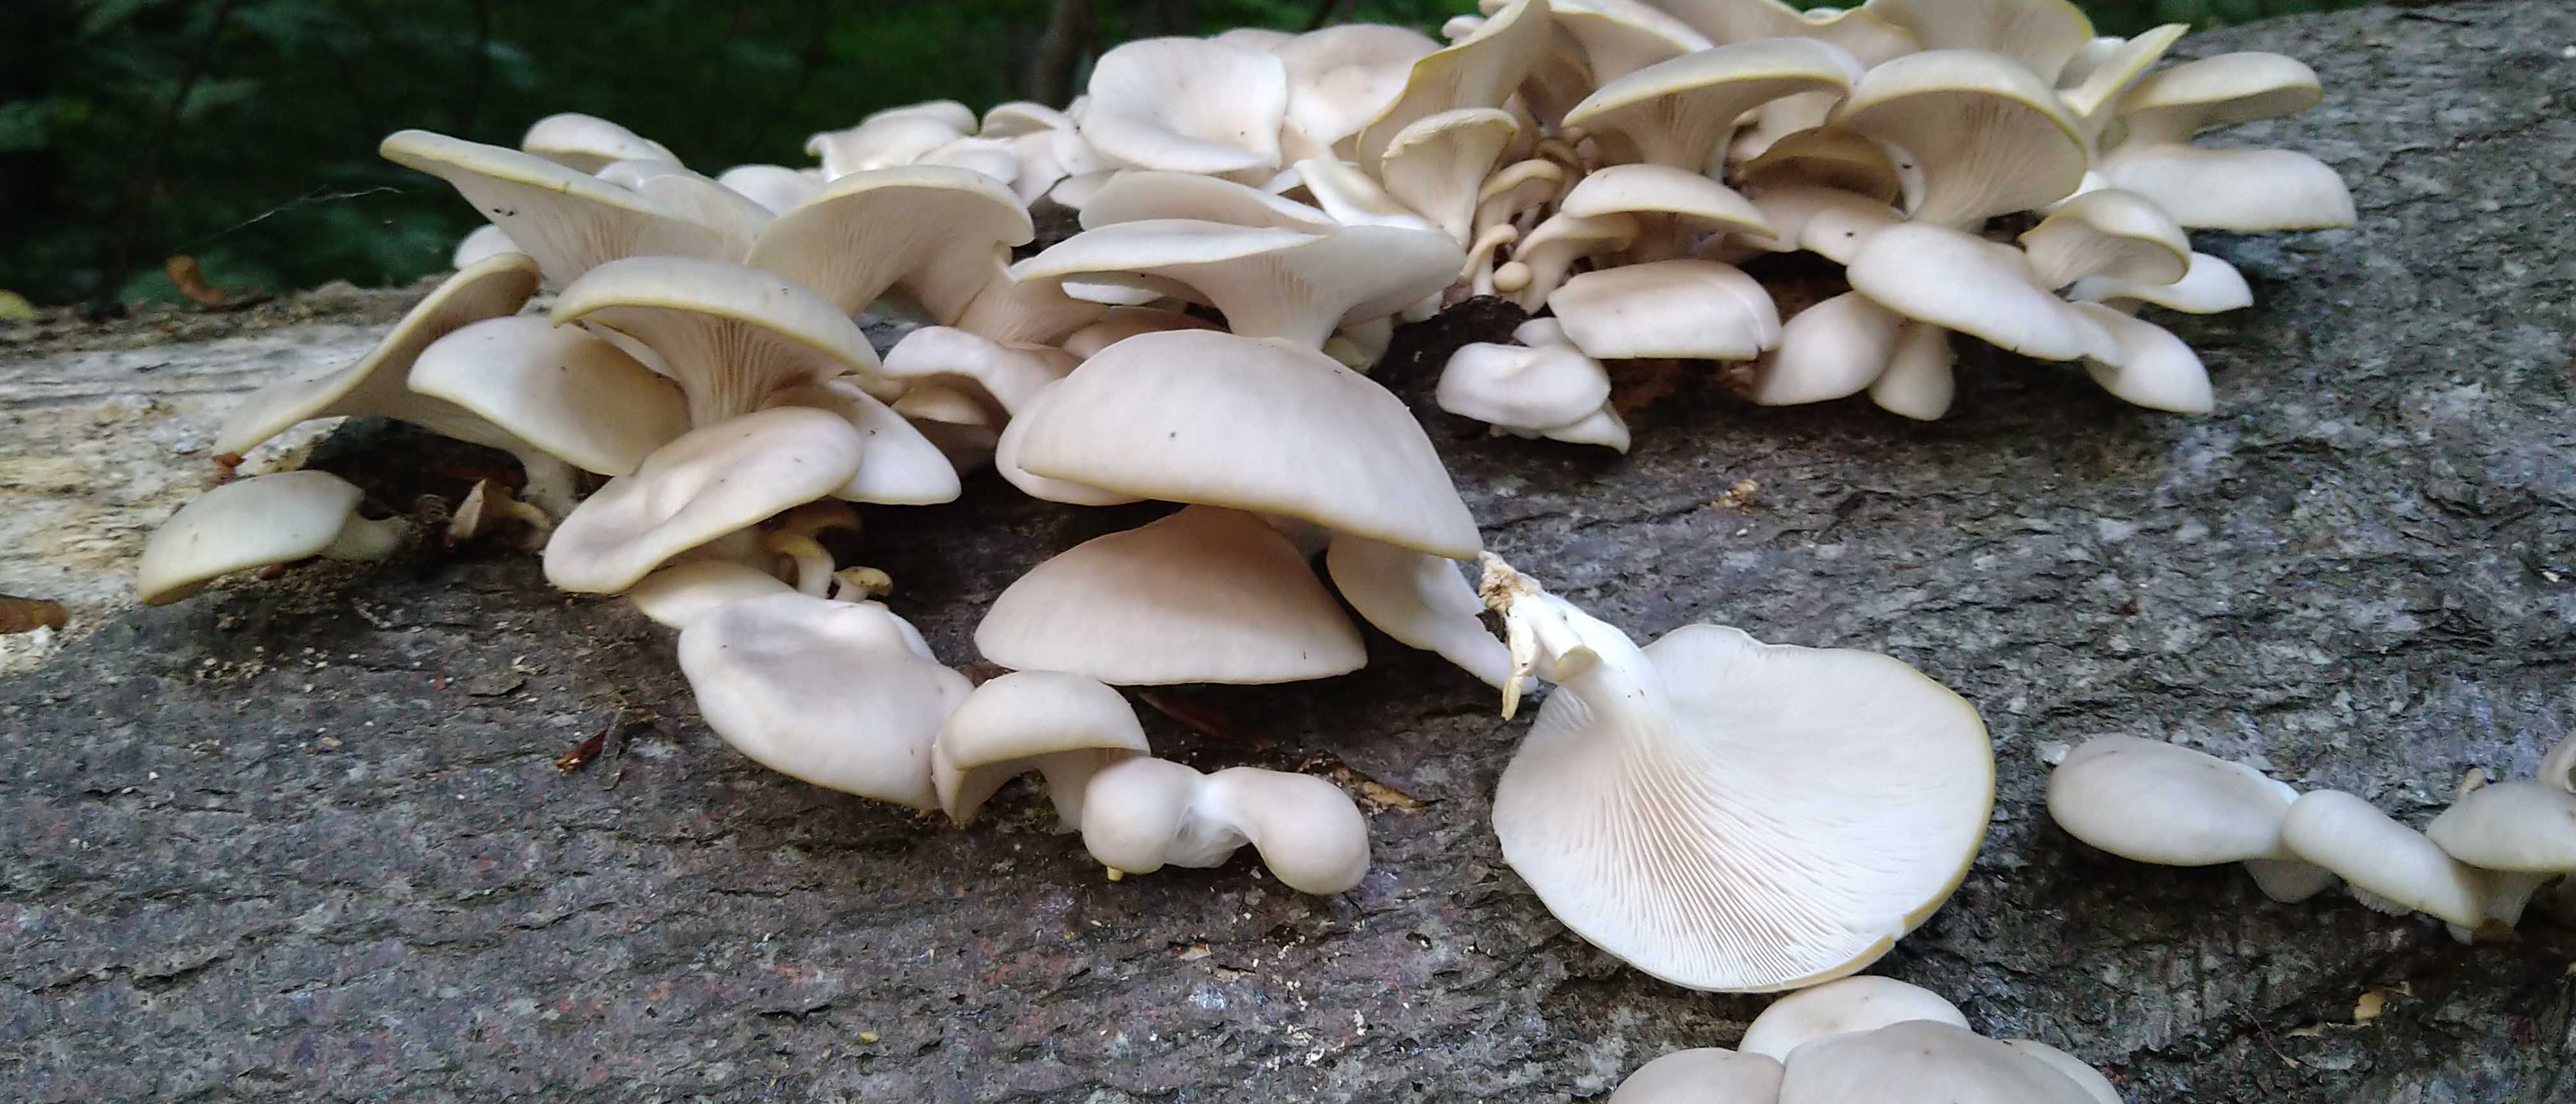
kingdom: Fungi
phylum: Basidiomycota
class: Agaricomycetes
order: Agaricales
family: Pleurotaceae
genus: Pleurotus
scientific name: Pleurotus pulmonarius
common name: sommer-østershat
